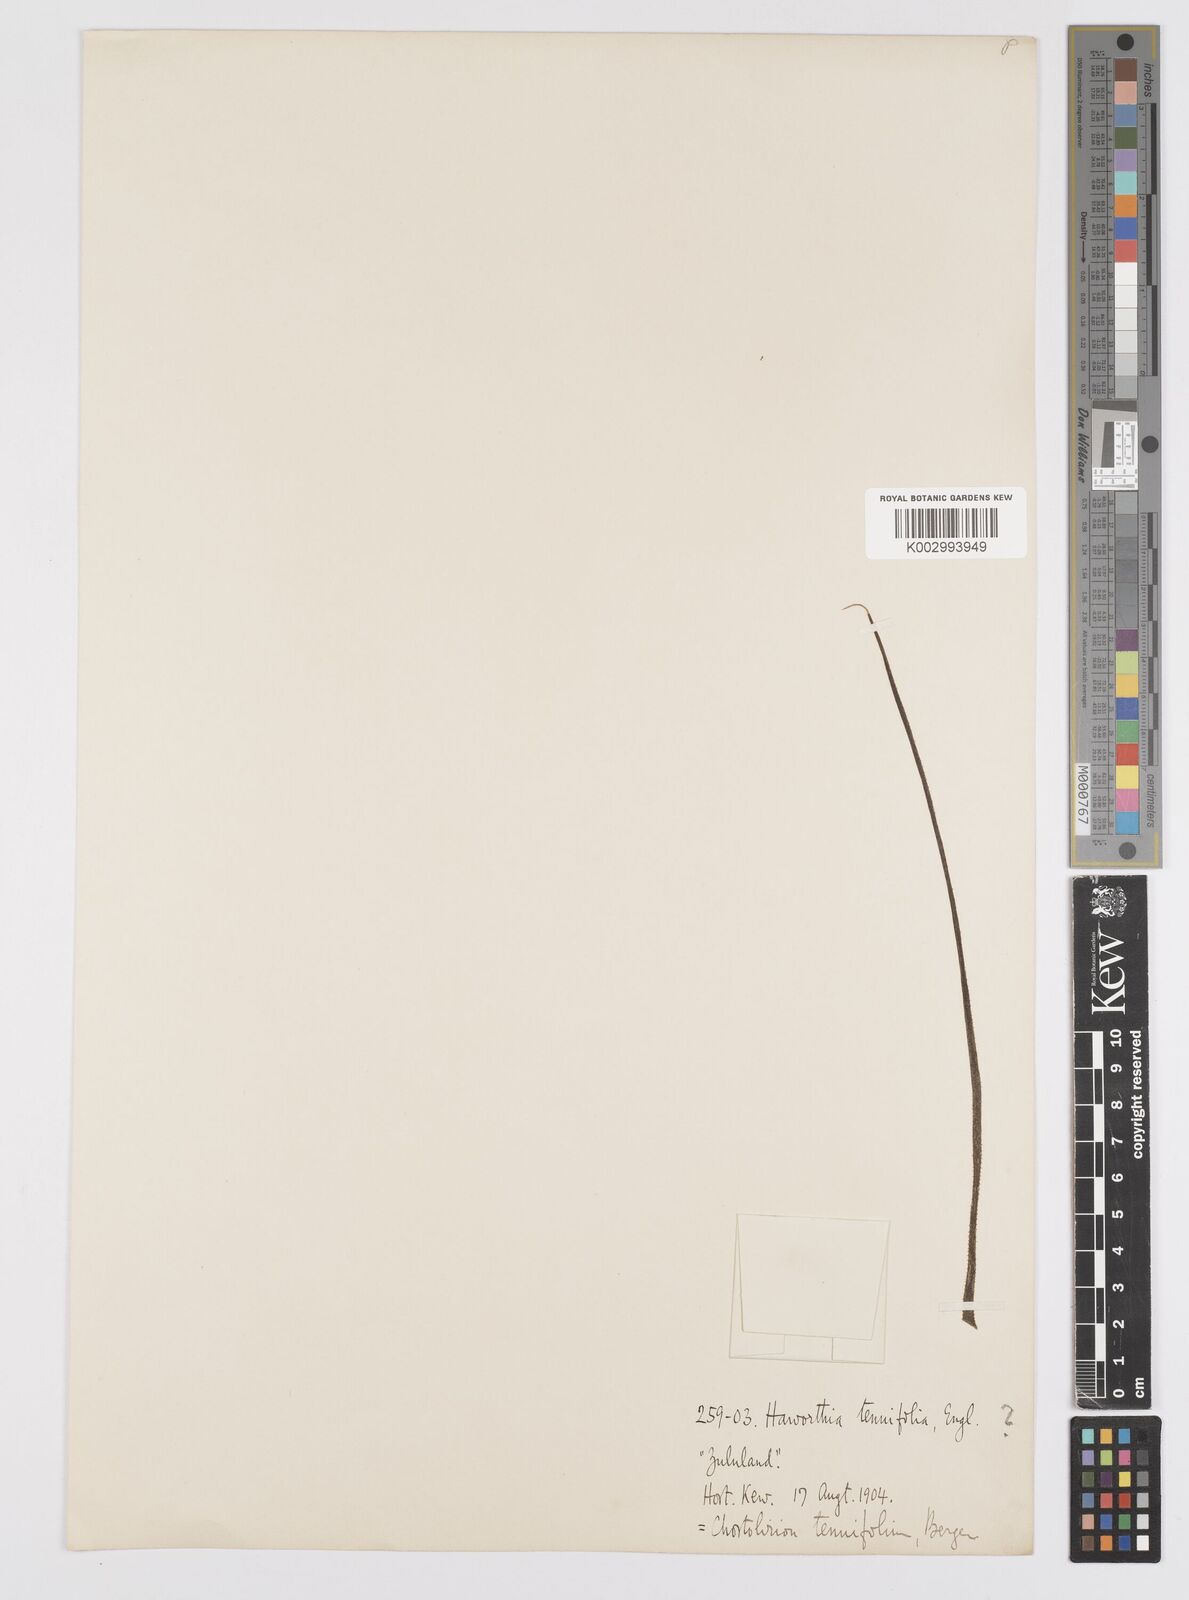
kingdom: Plantae
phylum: Tracheophyta
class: Liliopsida
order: Asparagales
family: Asphodelaceae
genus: Aloe
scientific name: Aloe welwitschii
